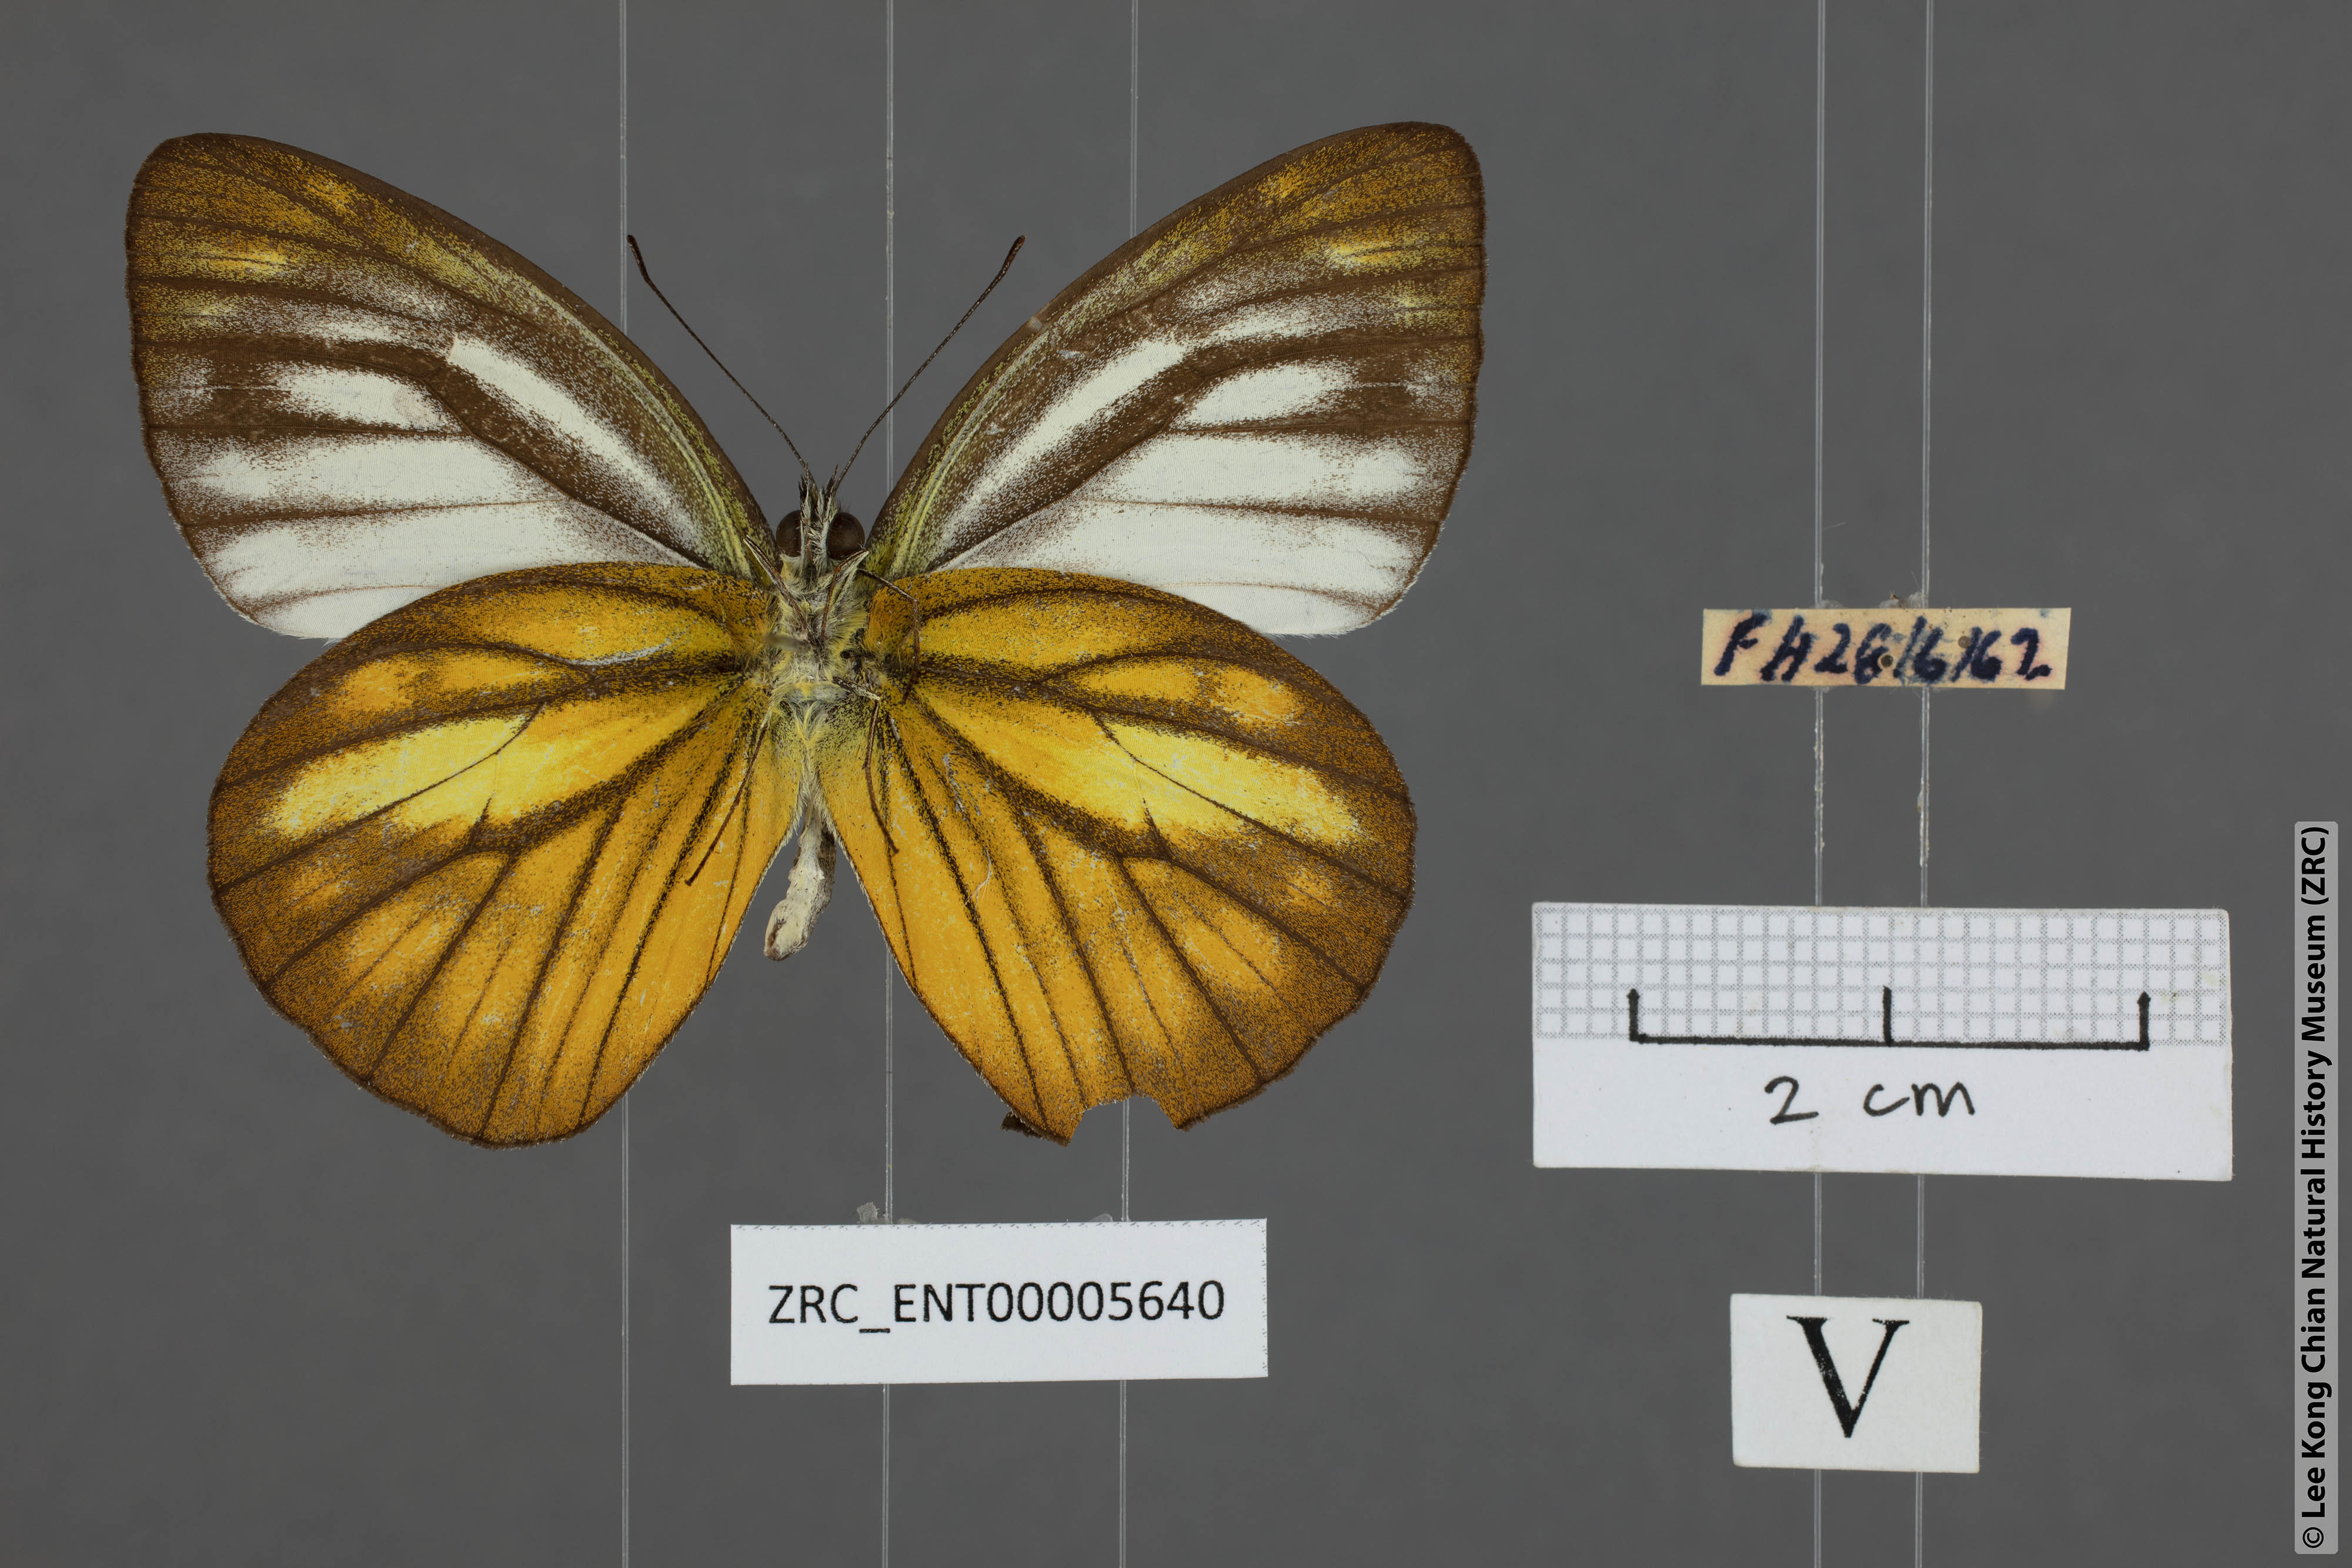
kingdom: Animalia
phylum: Arthropoda
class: Insecta
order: Lepidoptera
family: Pieridae
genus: Cepora
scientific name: Cepora nadina
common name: Lesser gull
